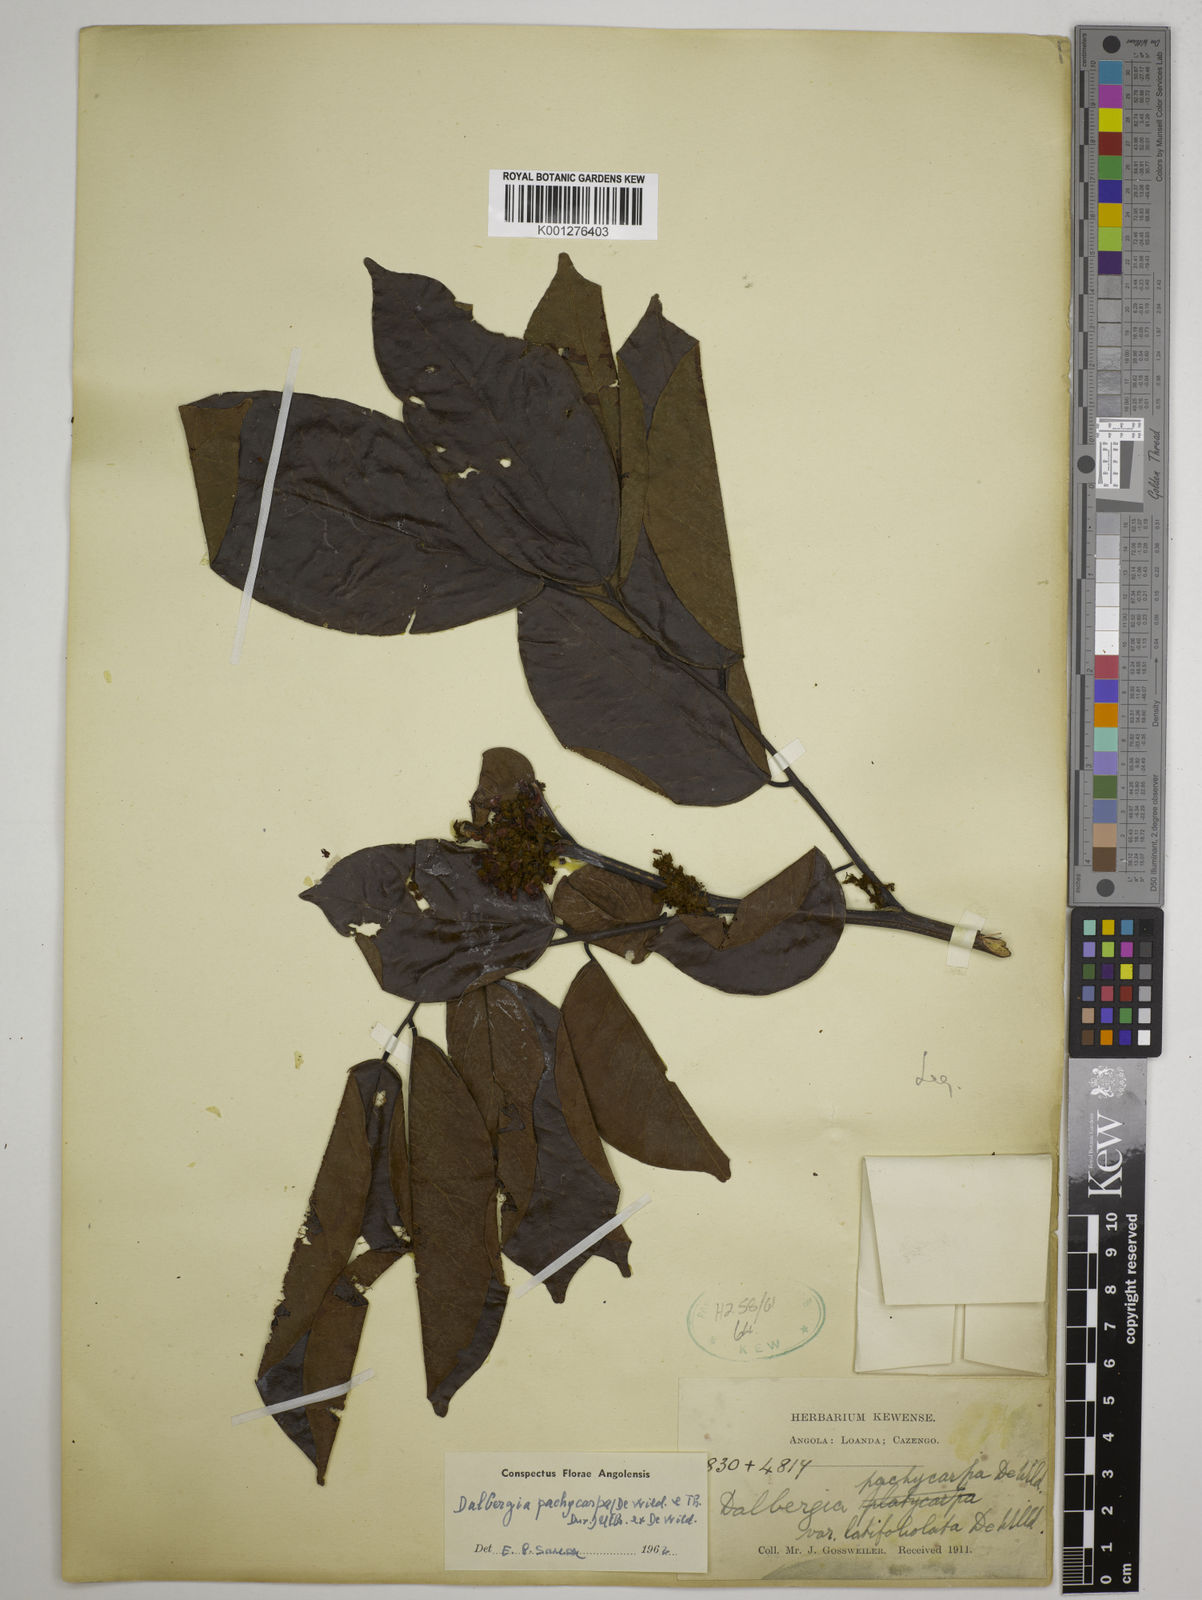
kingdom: Plantae
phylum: Tracheophyta
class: Magnoliopsida
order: Fabales
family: Fabaceae
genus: Dalbergia
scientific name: Dalbergia pachycarpa
